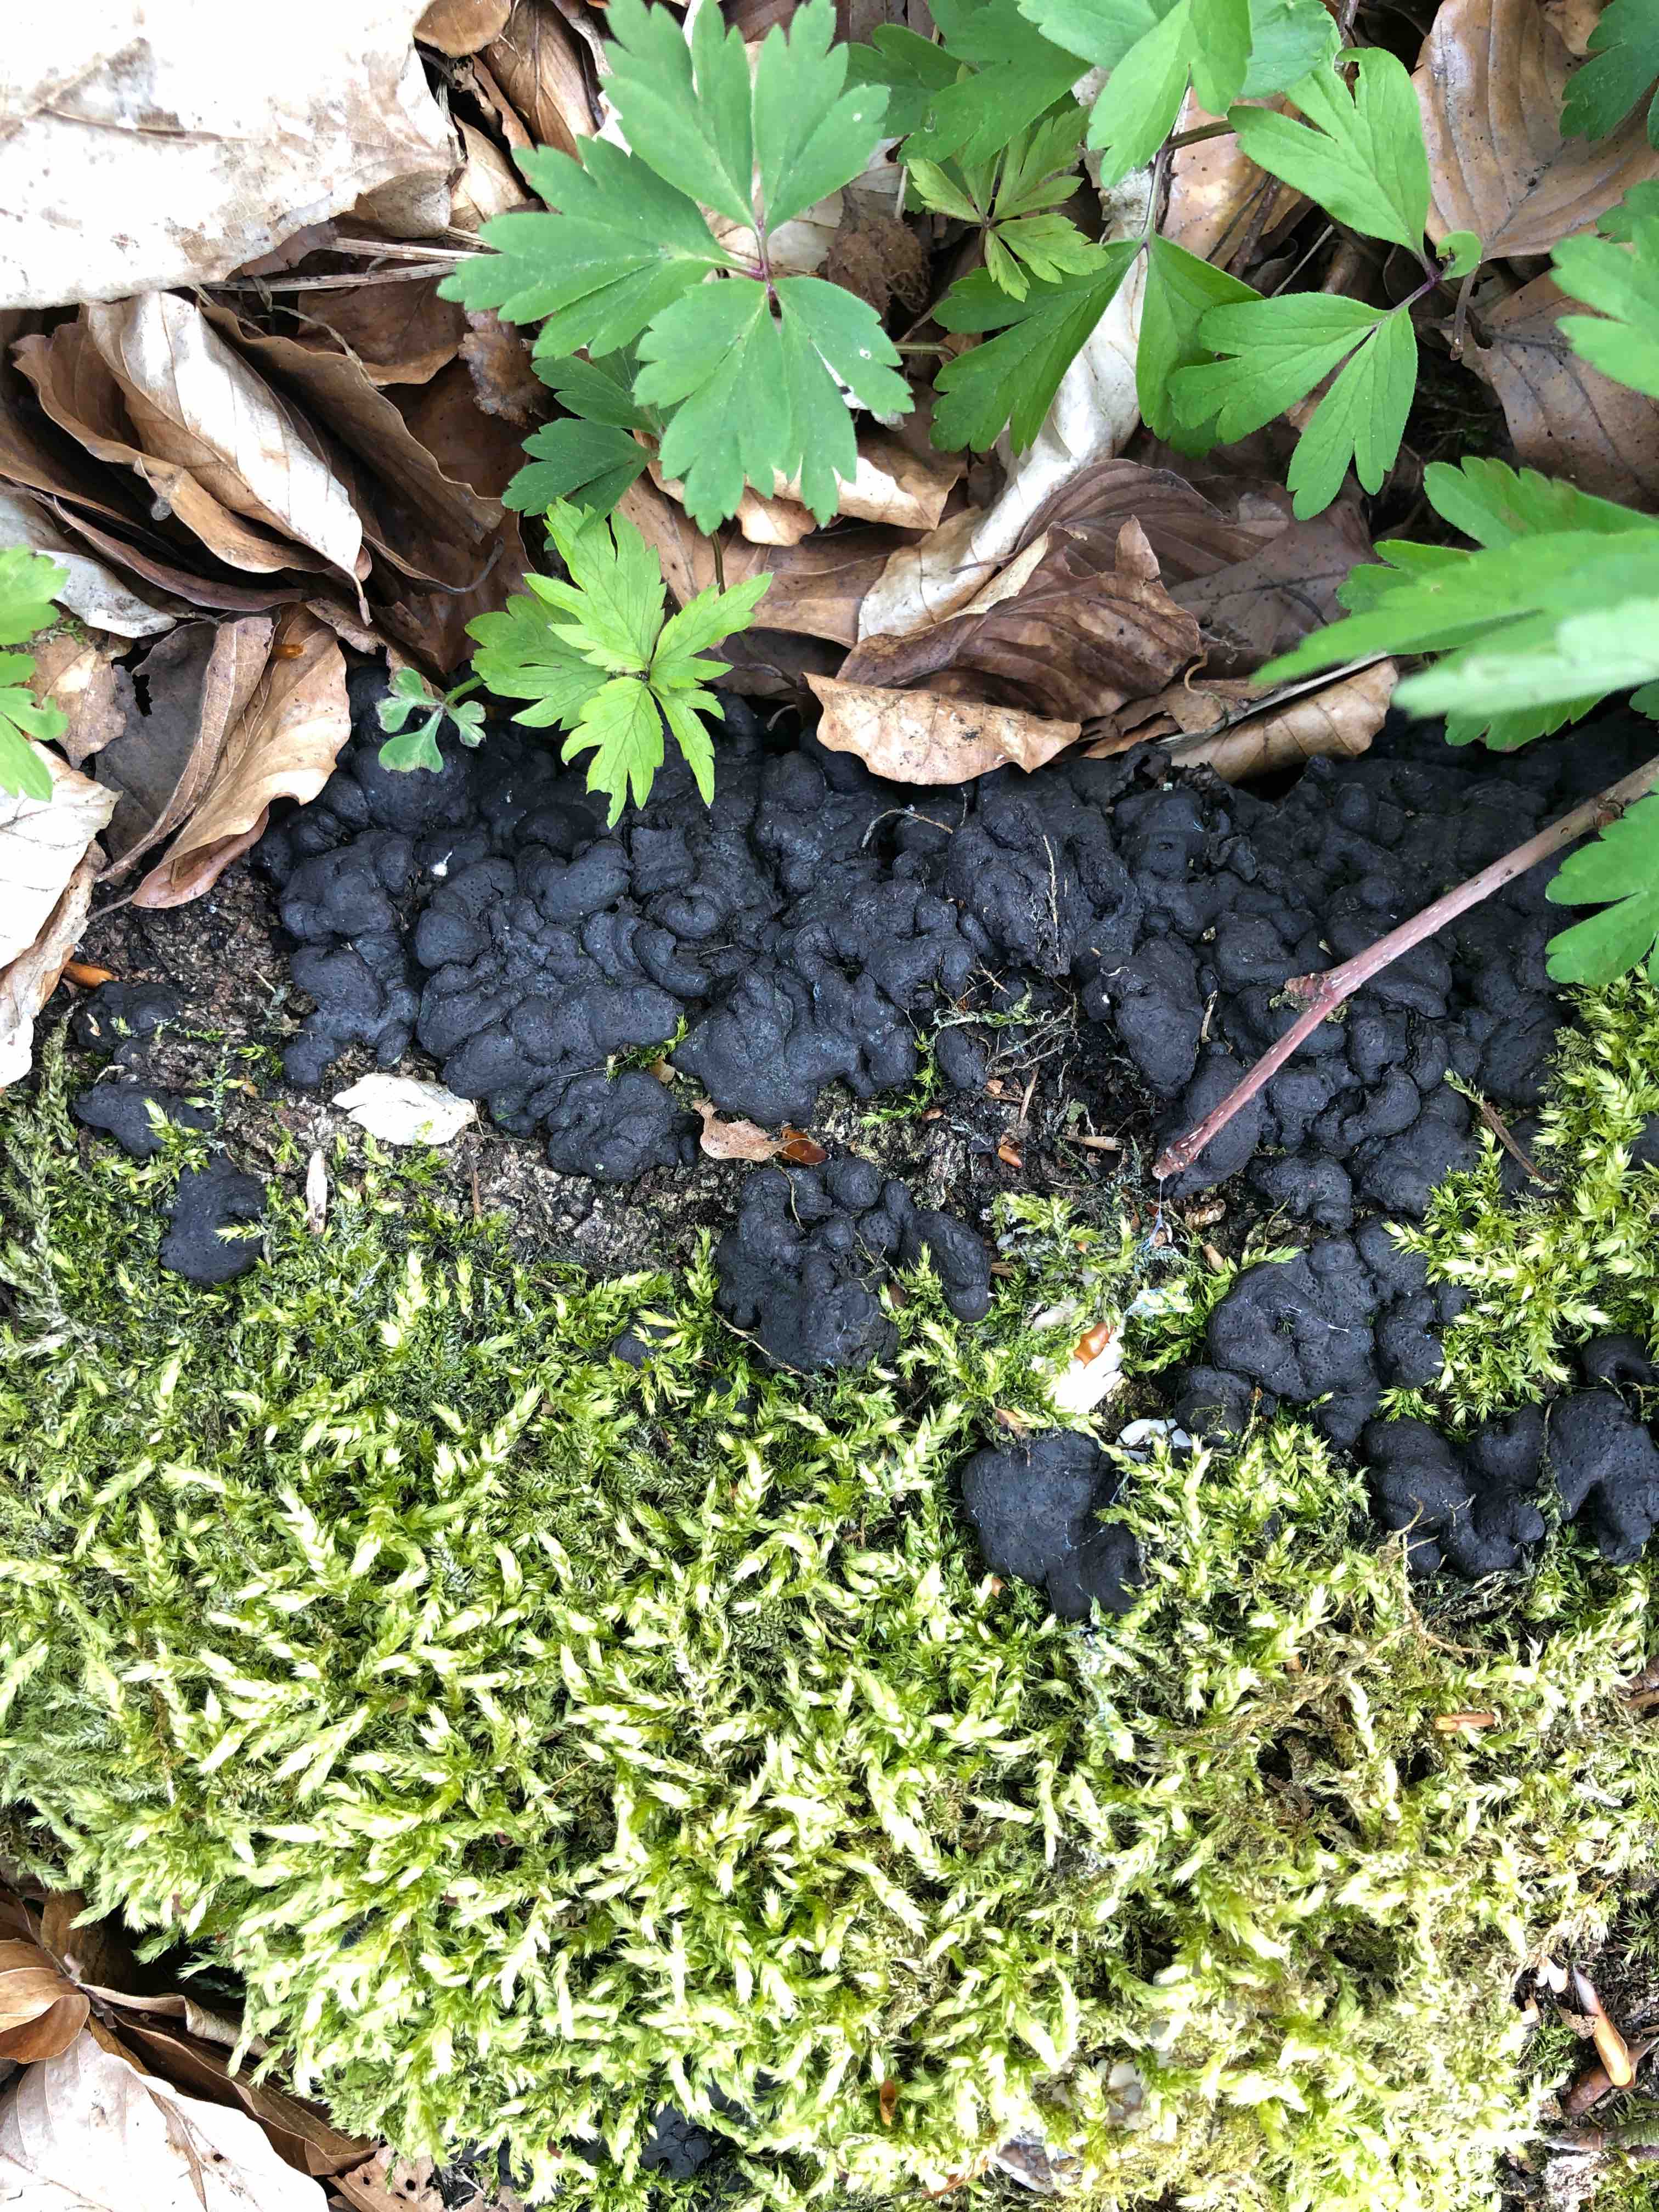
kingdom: Fungi
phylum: Ascomycota
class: Sordariomycetes
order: Xylariales
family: Xylariaceae
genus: Kretzschmaria
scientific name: Kretzschmaria deusta
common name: stor kulsvamp
